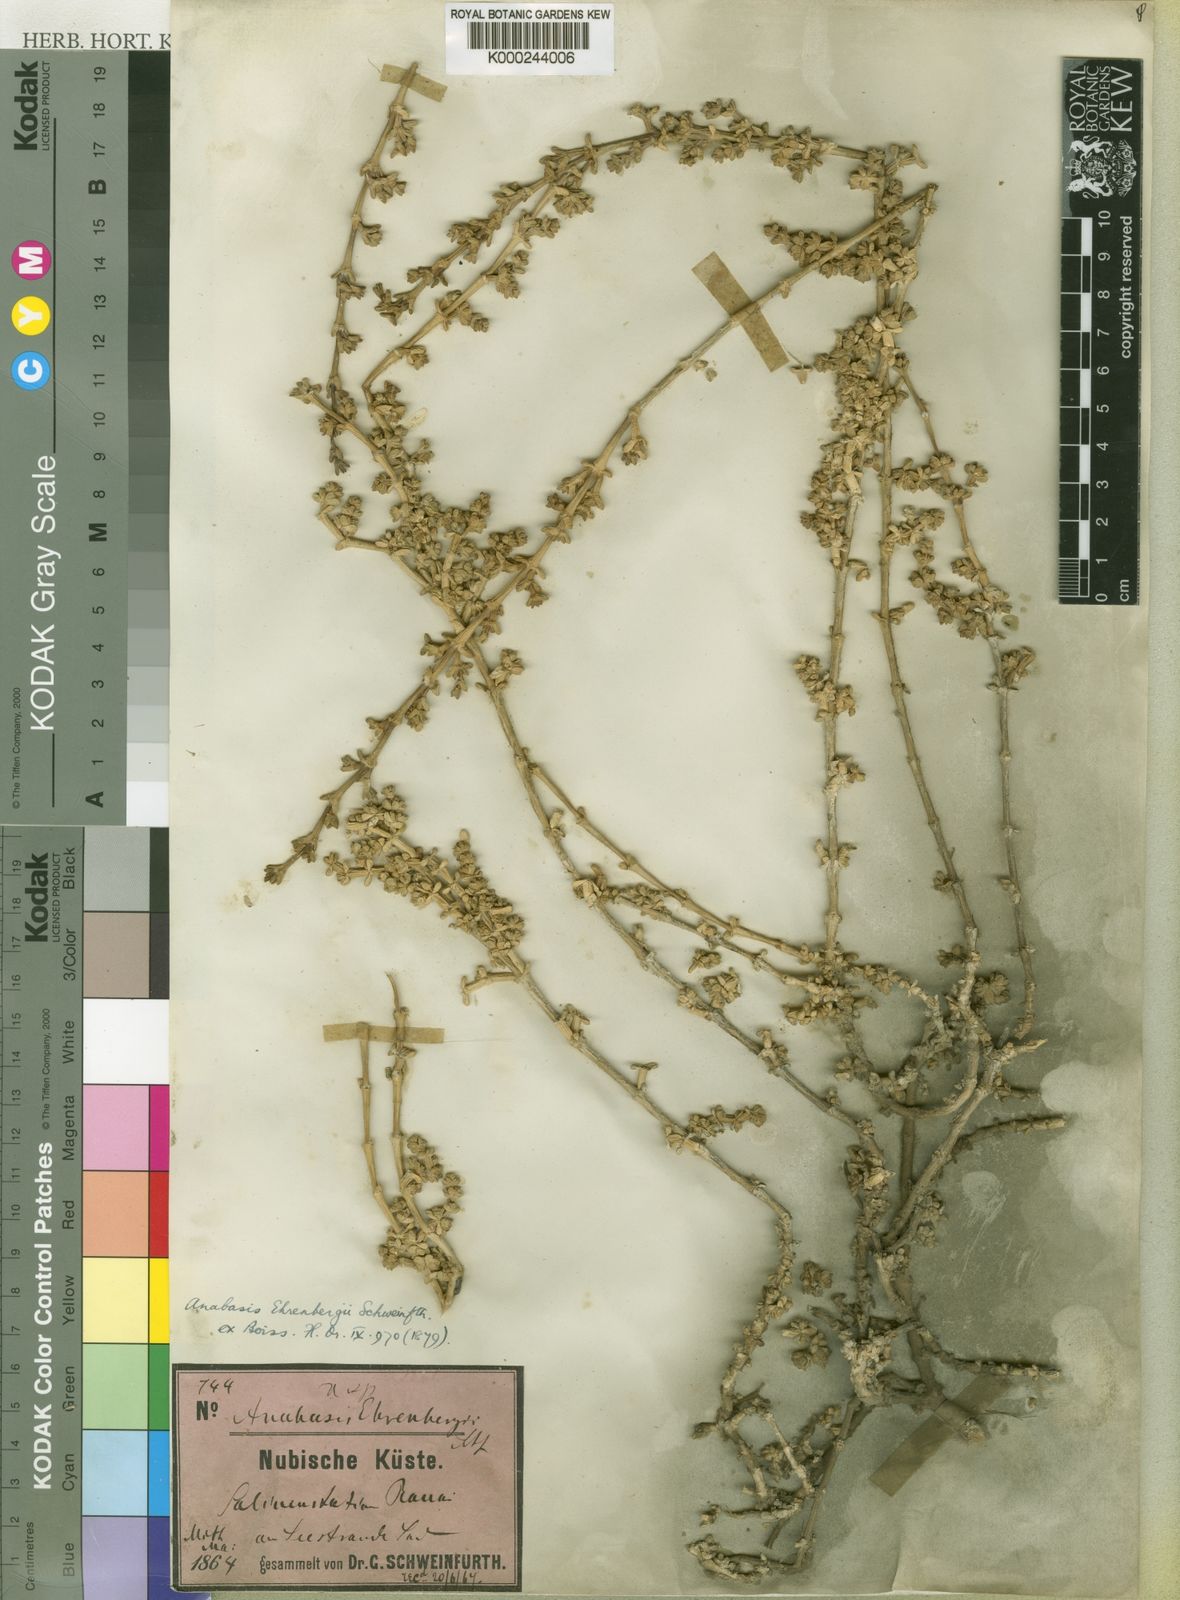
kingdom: Plantae
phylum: Tracheophyta
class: Magnoliopsida
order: Caryophyllales
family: Amaranthaceae
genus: Anabasis
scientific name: Anabasis ehrenbergii
